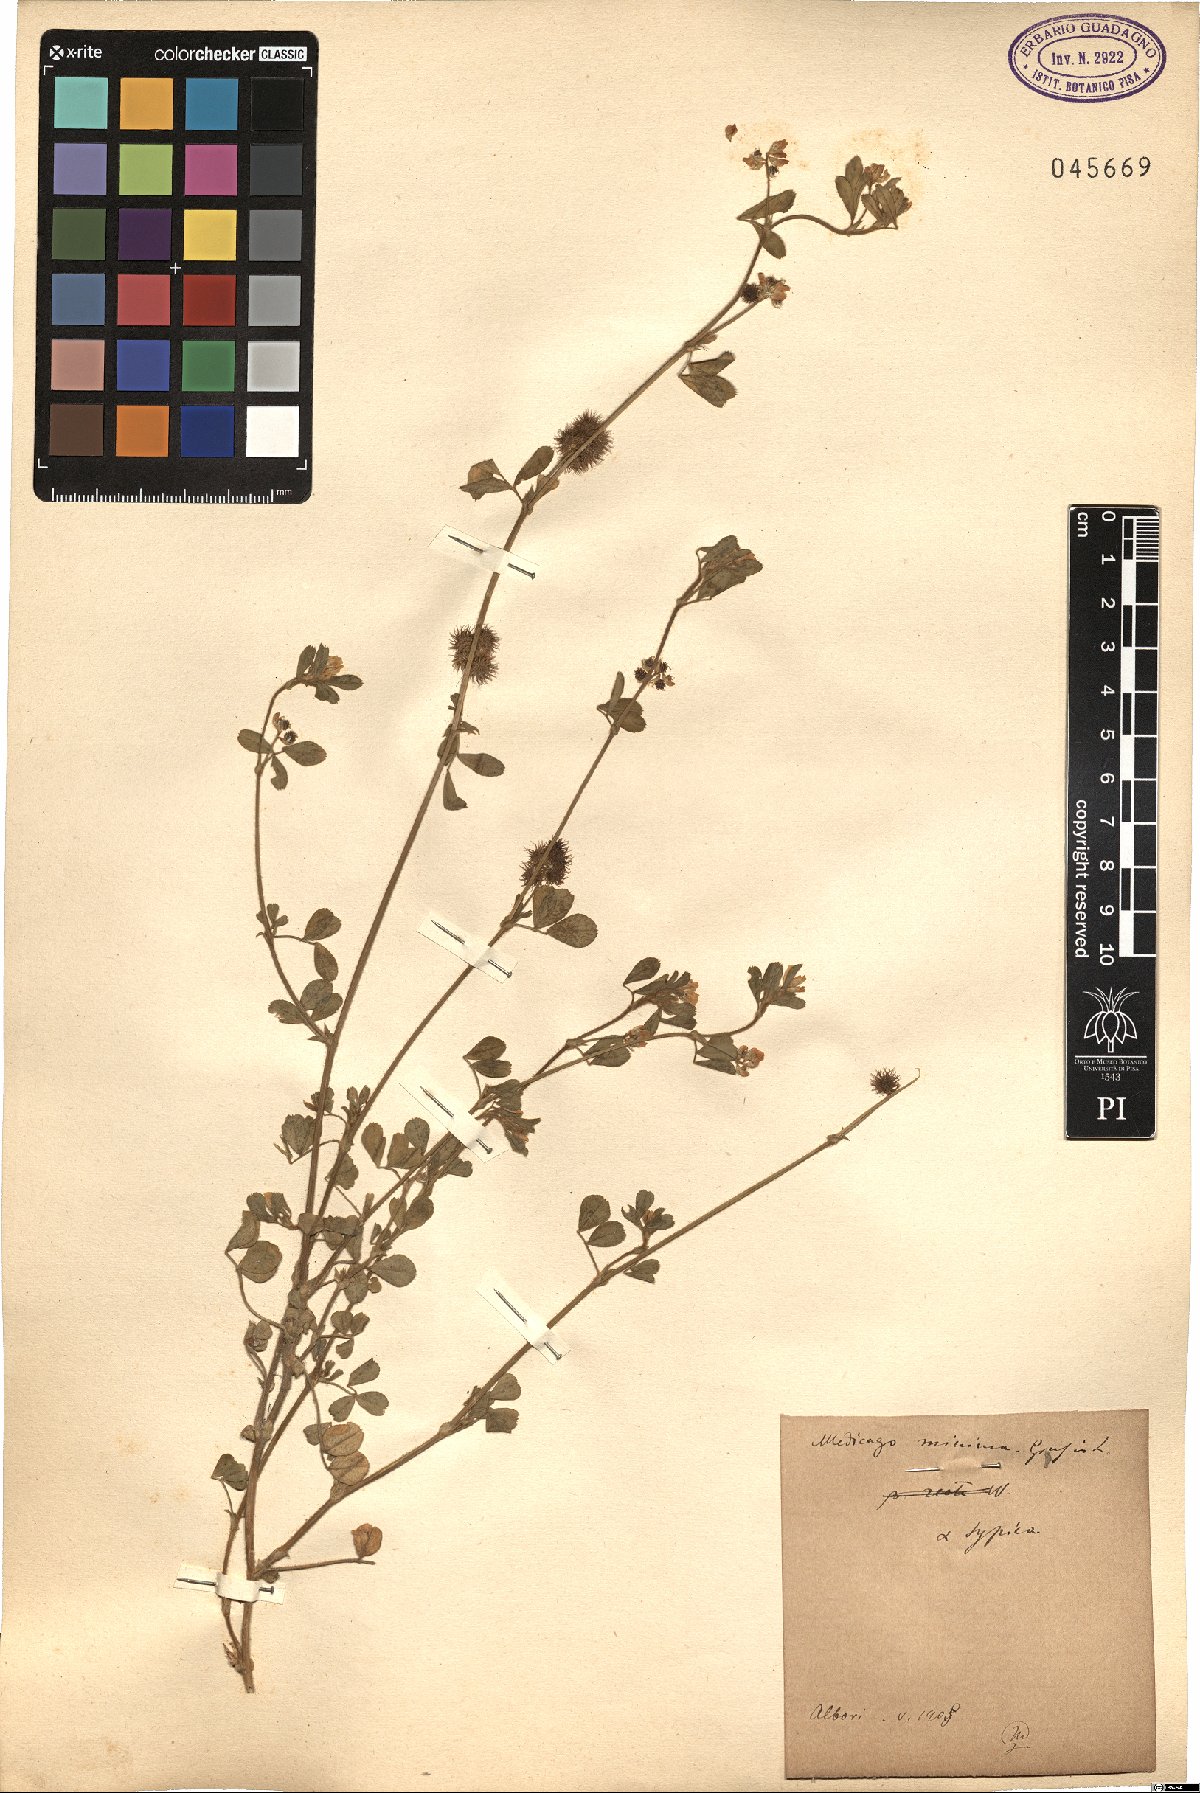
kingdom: Plantae
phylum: Tracheophyta
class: Magnoliopsida
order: Fabales
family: Fabaceae
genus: Medicago
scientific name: Medicago minima
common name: Little bur-clover
